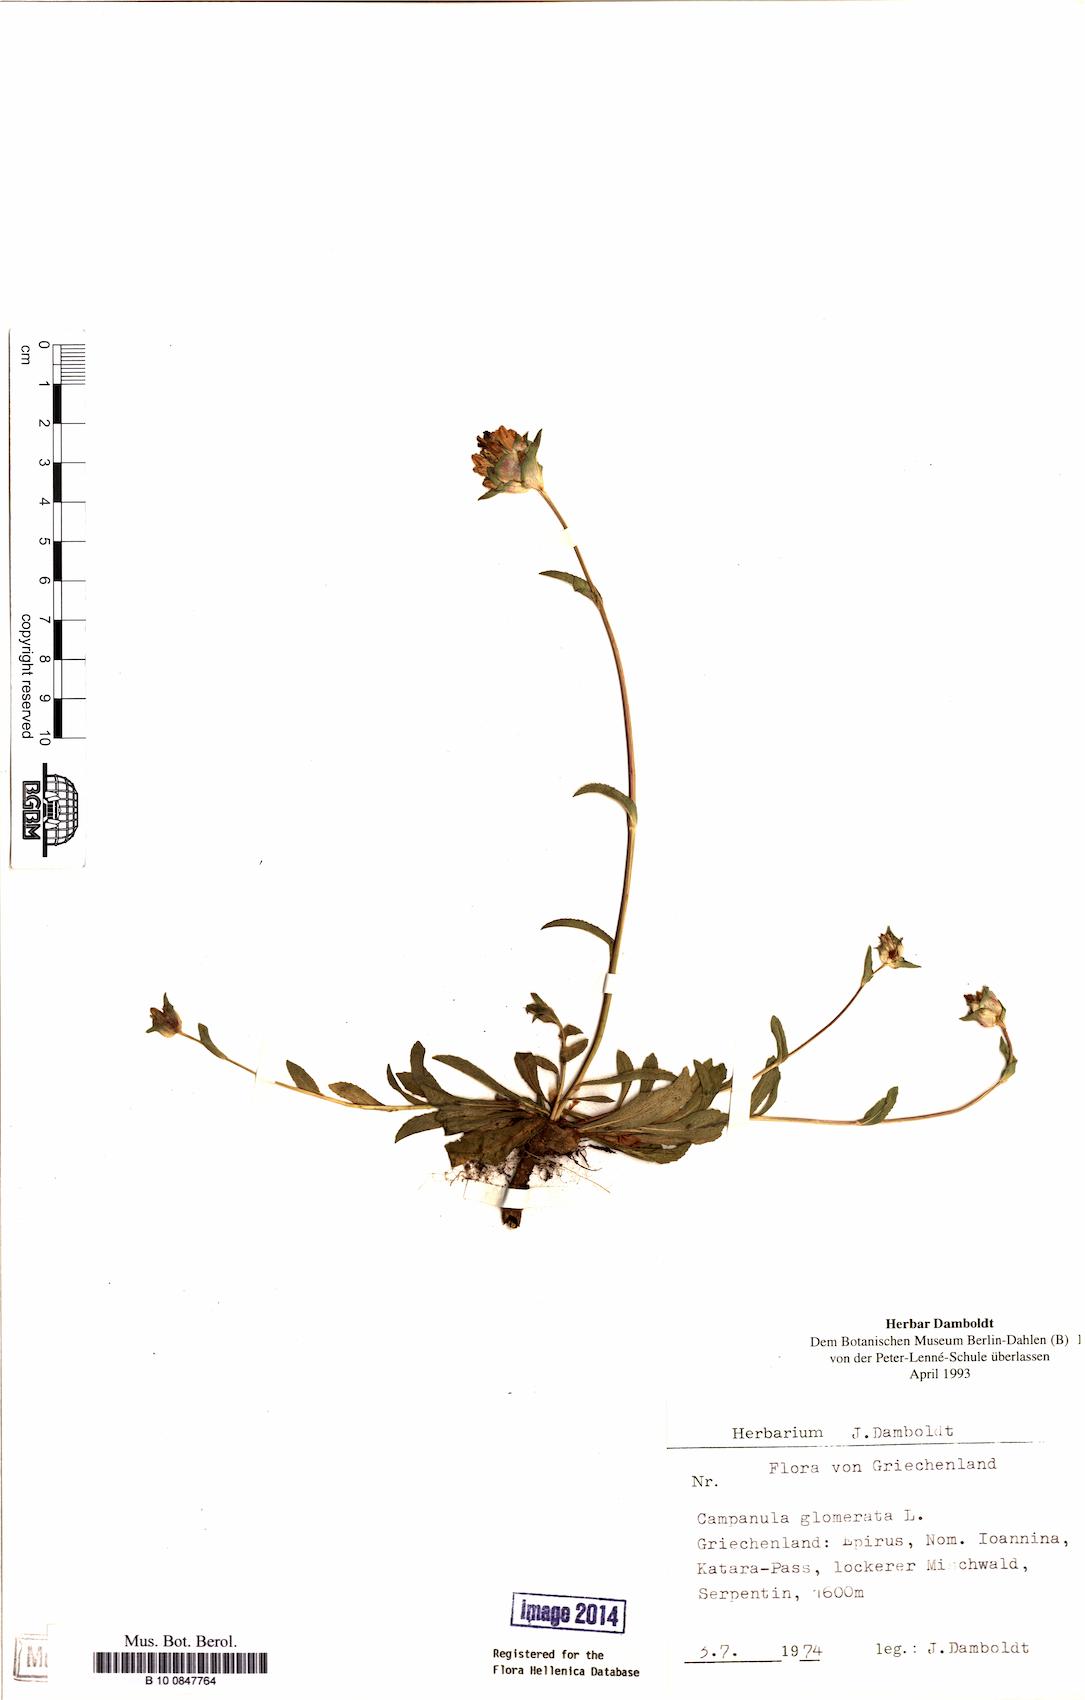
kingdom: Plantae
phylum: Tracheophyta
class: Magnoliopsida
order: Asterales
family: Campanulaceae
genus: Campanula
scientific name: Campanula glomerata
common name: Clustered bellflower
